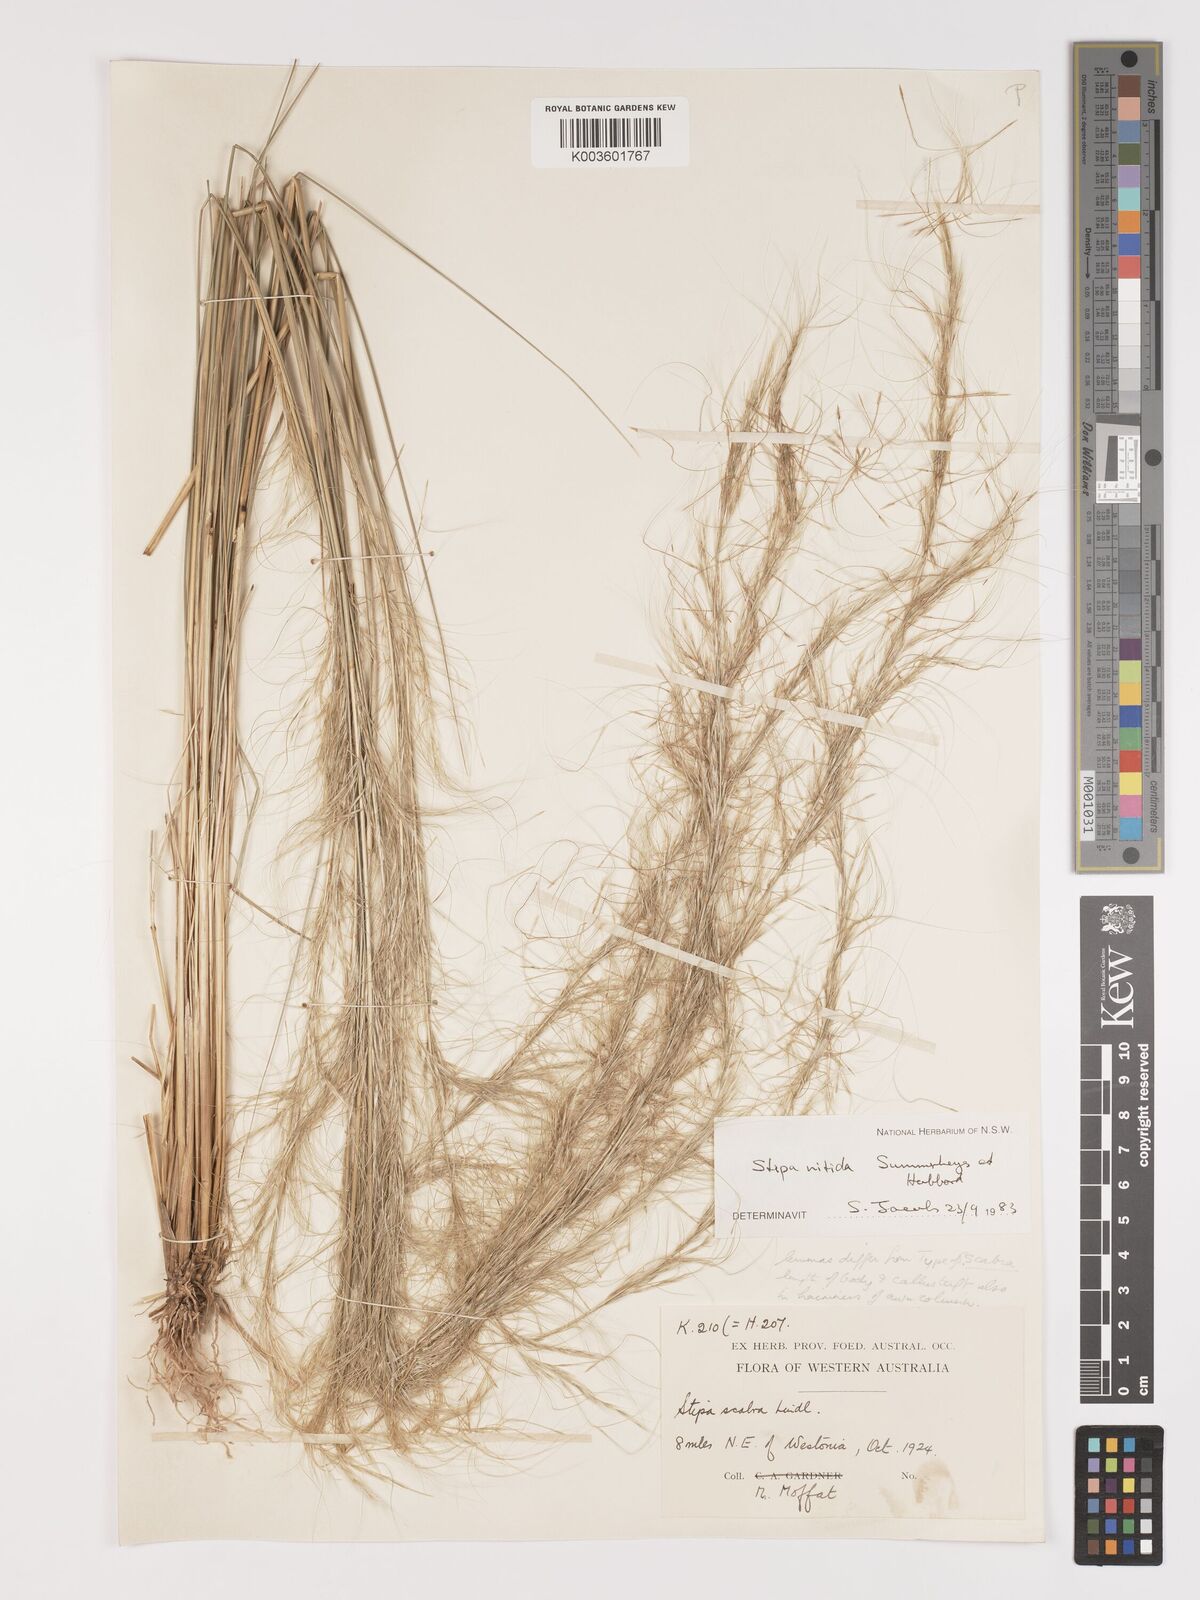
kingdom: Plantae
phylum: Tracheophyta
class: Liliopsida
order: Poales
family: Poaceae
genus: Austrostipa
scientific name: Austrostipa nitida
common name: Balcarra grass
